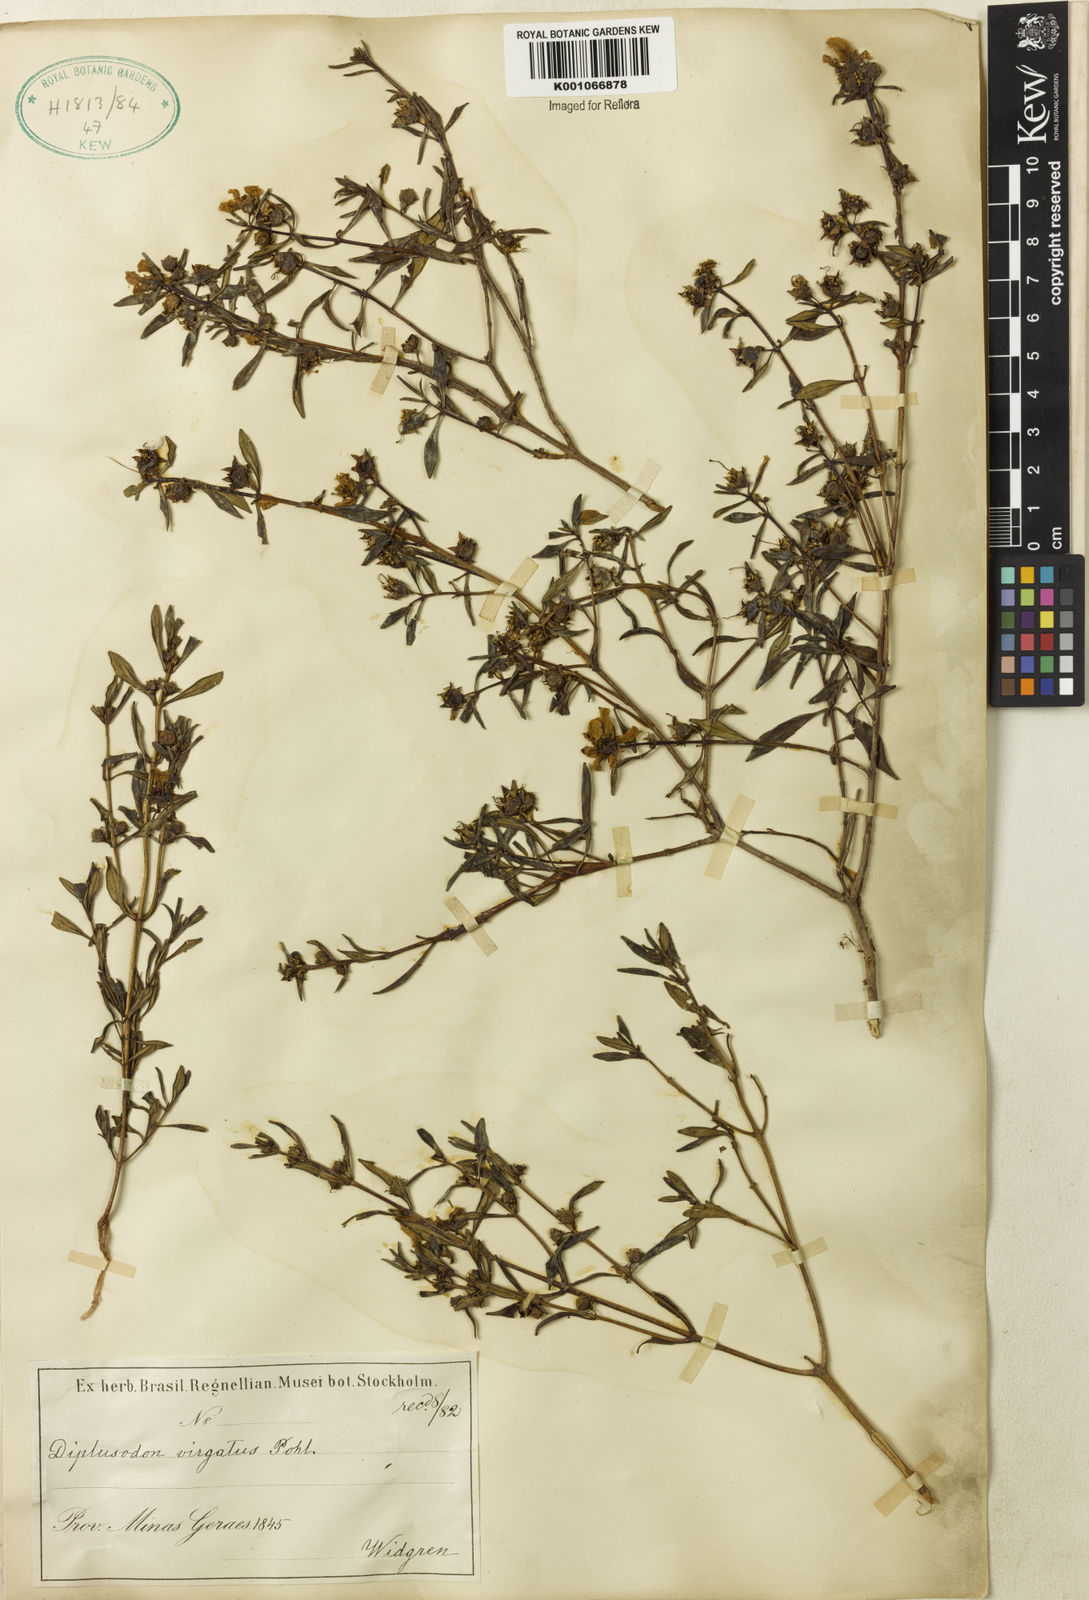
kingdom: Plantae
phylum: Tracheophyta
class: Magnoliopsida
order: Myrtales
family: Lythraceae
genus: Diplusodon
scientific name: Diplusodon virgatus
